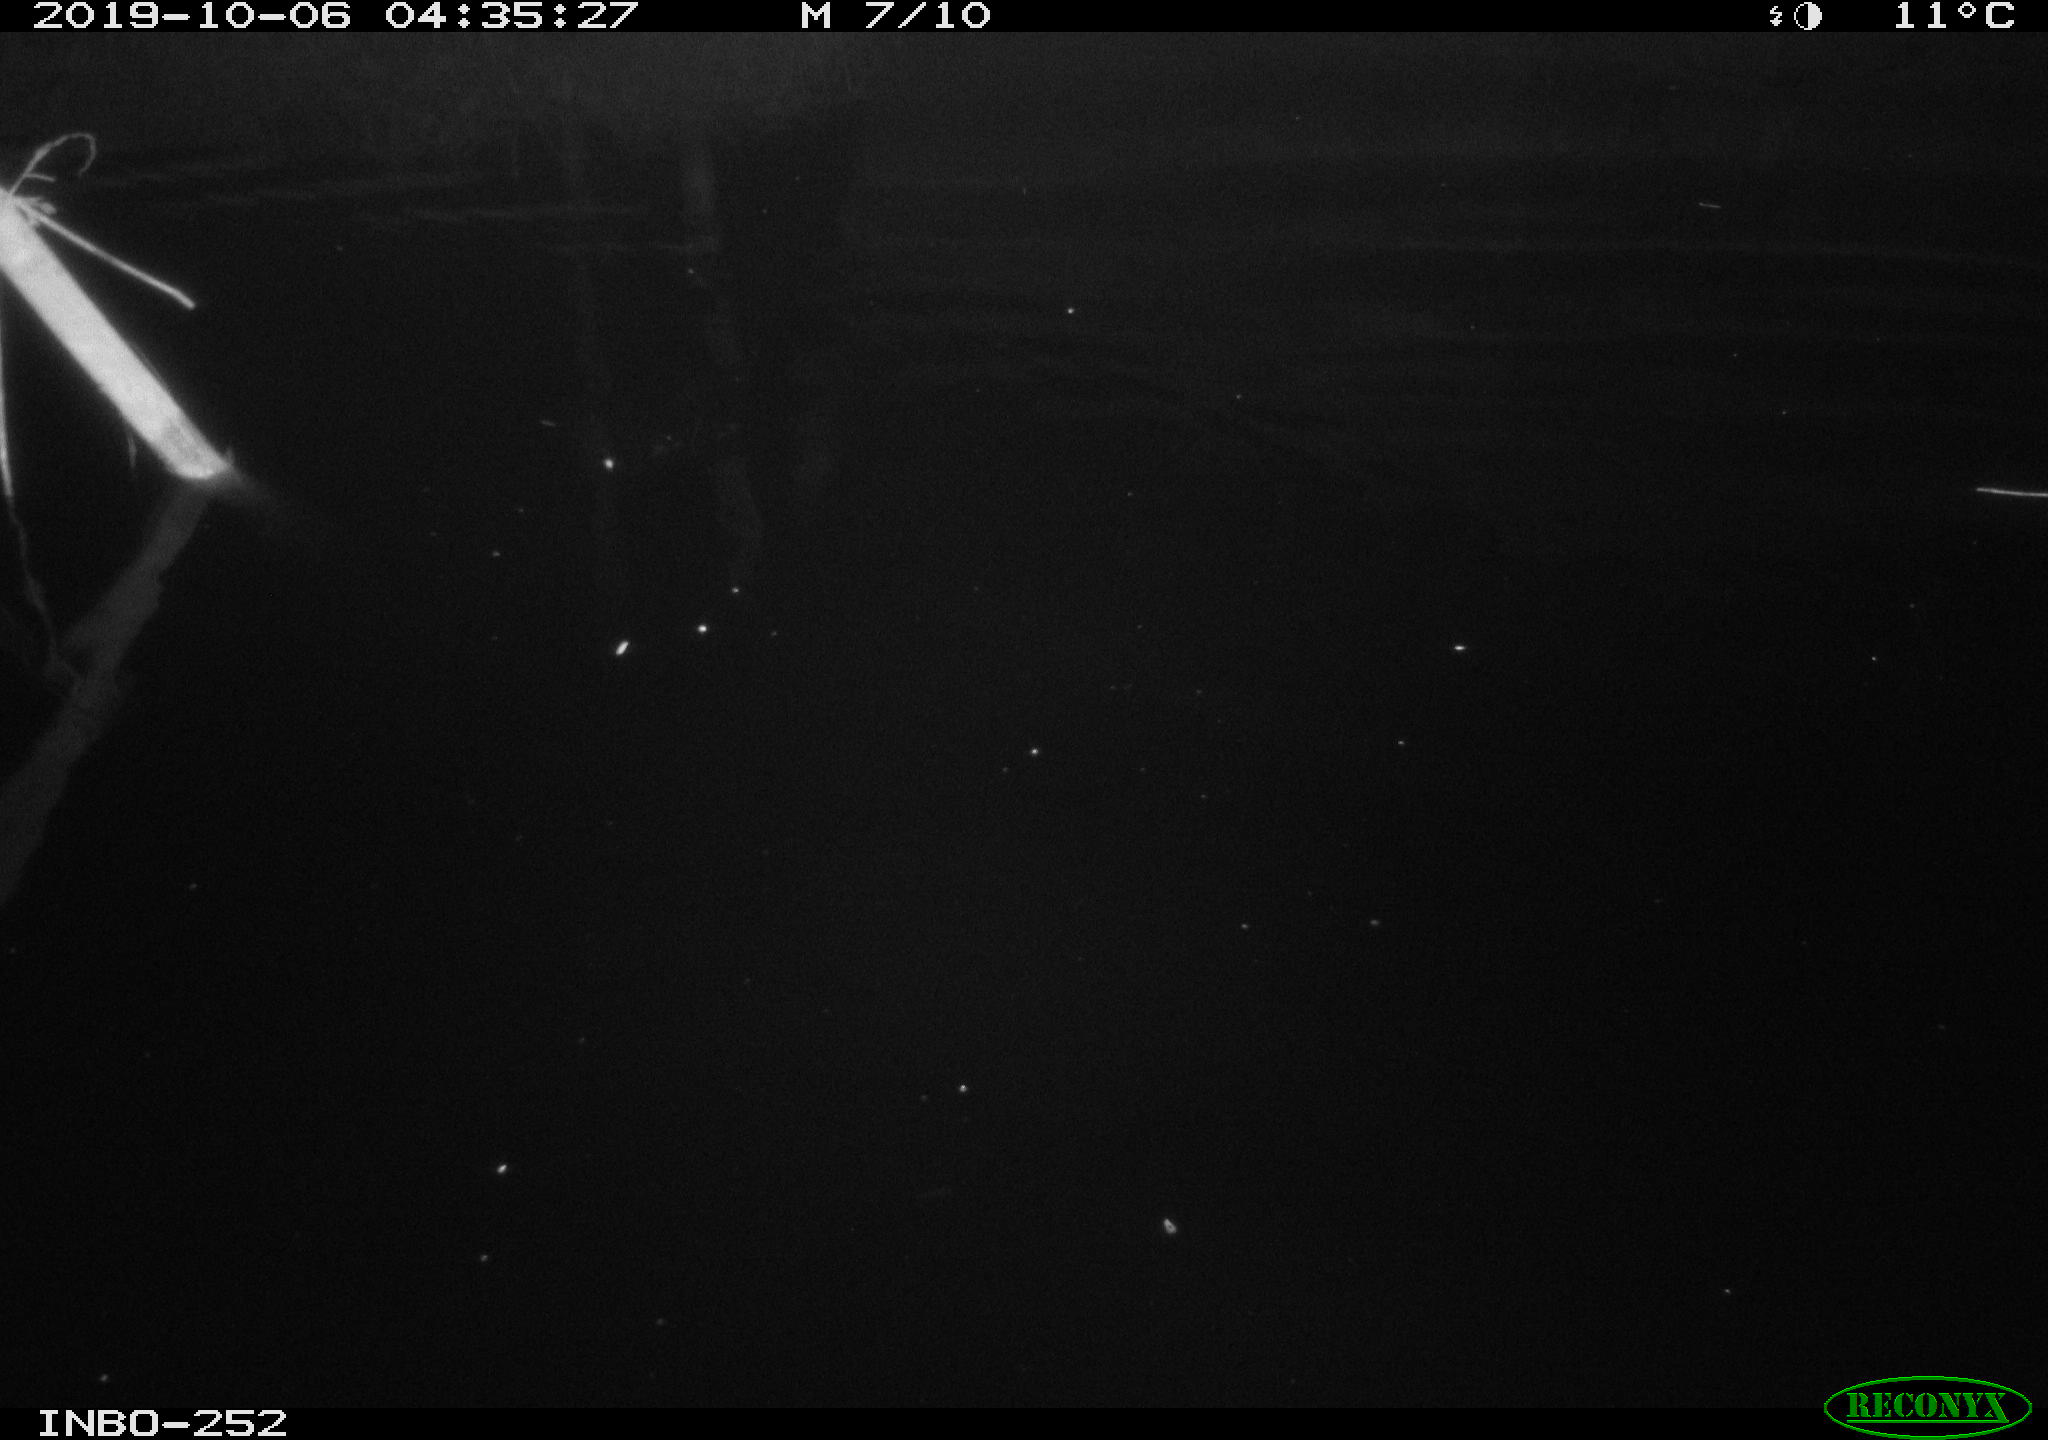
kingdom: Animalia
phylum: Chordata
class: Mammalia
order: Rodentia
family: Muridae
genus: Rattus
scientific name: Rattus norvegicus
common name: Brown rat
